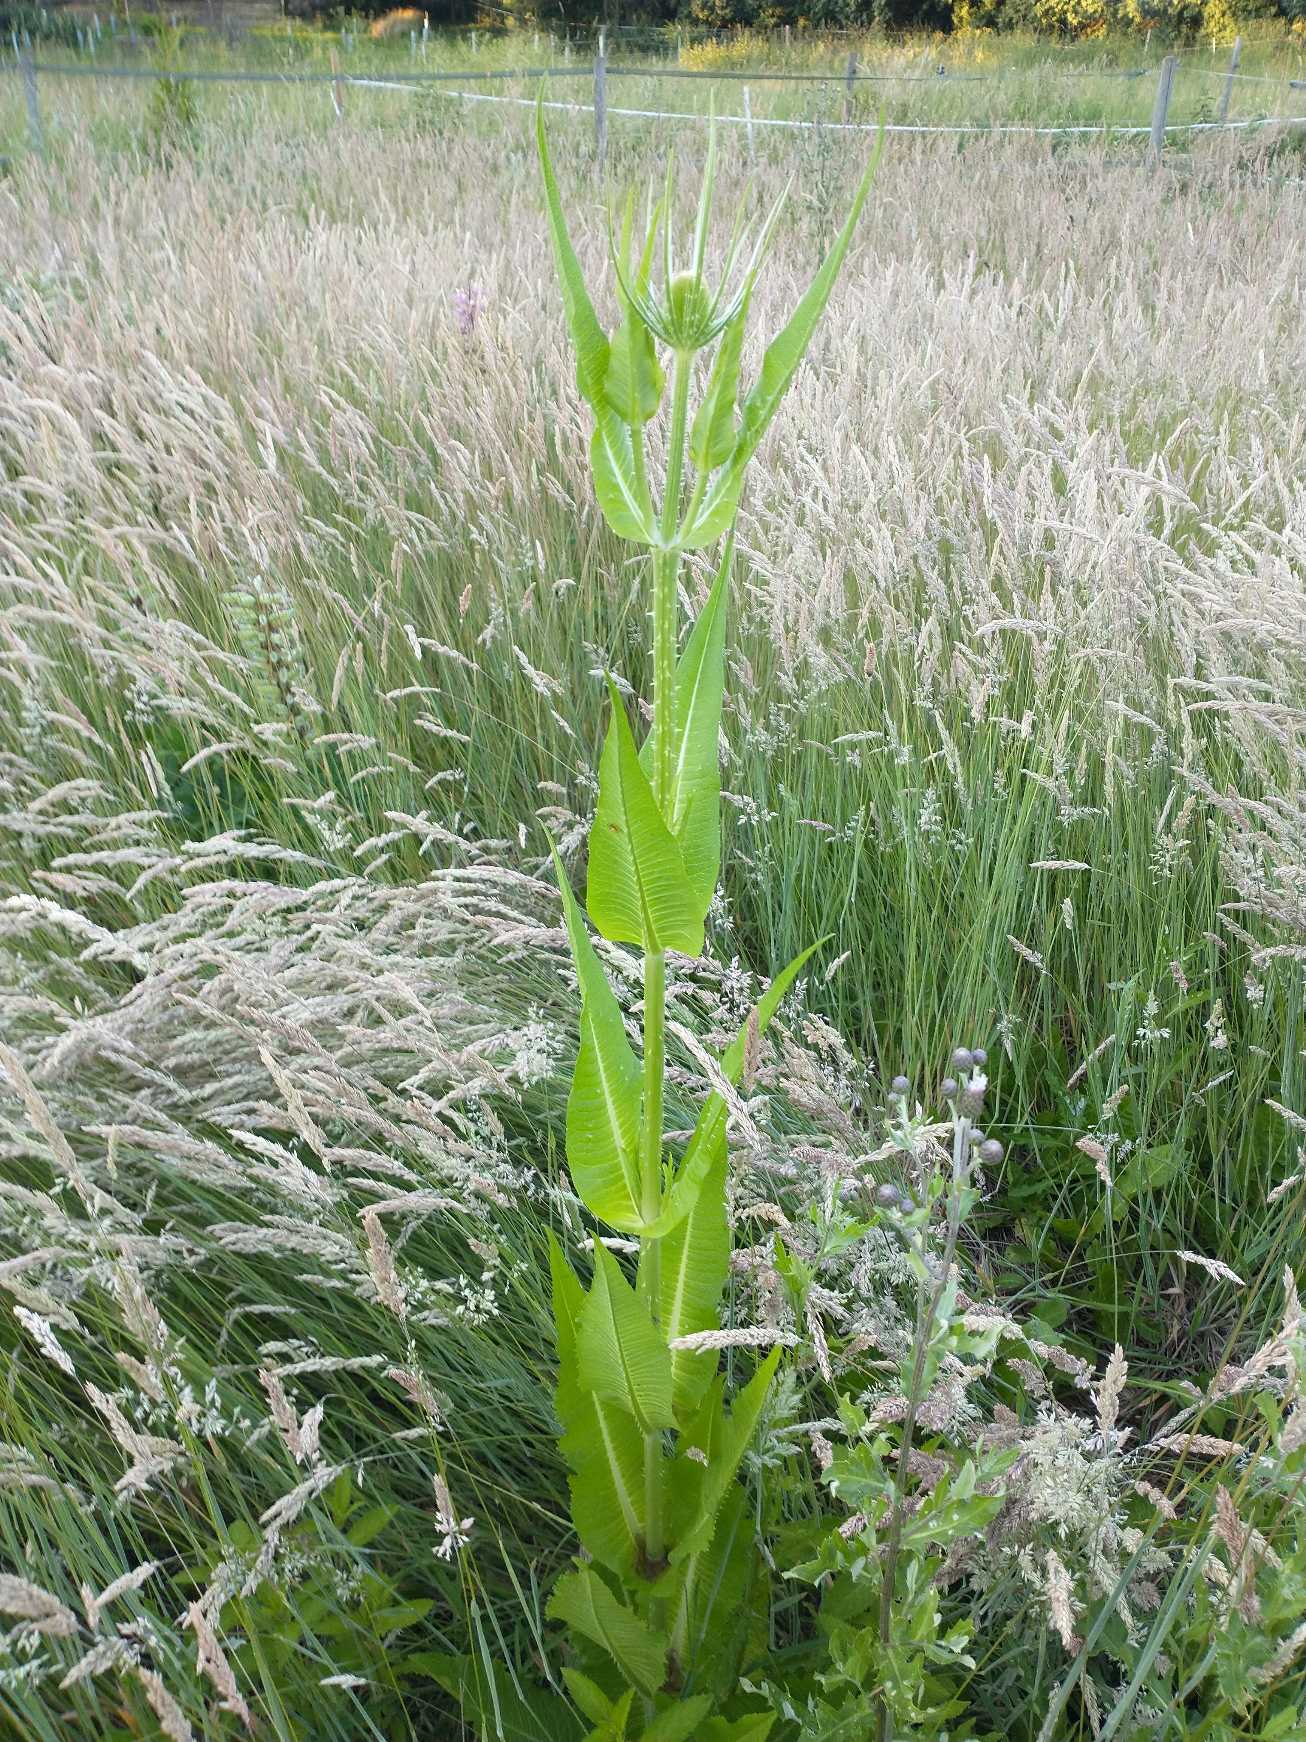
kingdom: Plantae
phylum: Tracheophyta
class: Magnoliopsida
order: Dipsacales
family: Caprifoliaceae
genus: Dipsacus
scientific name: Dipsacus fullonum
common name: Gærde-kartebolle
